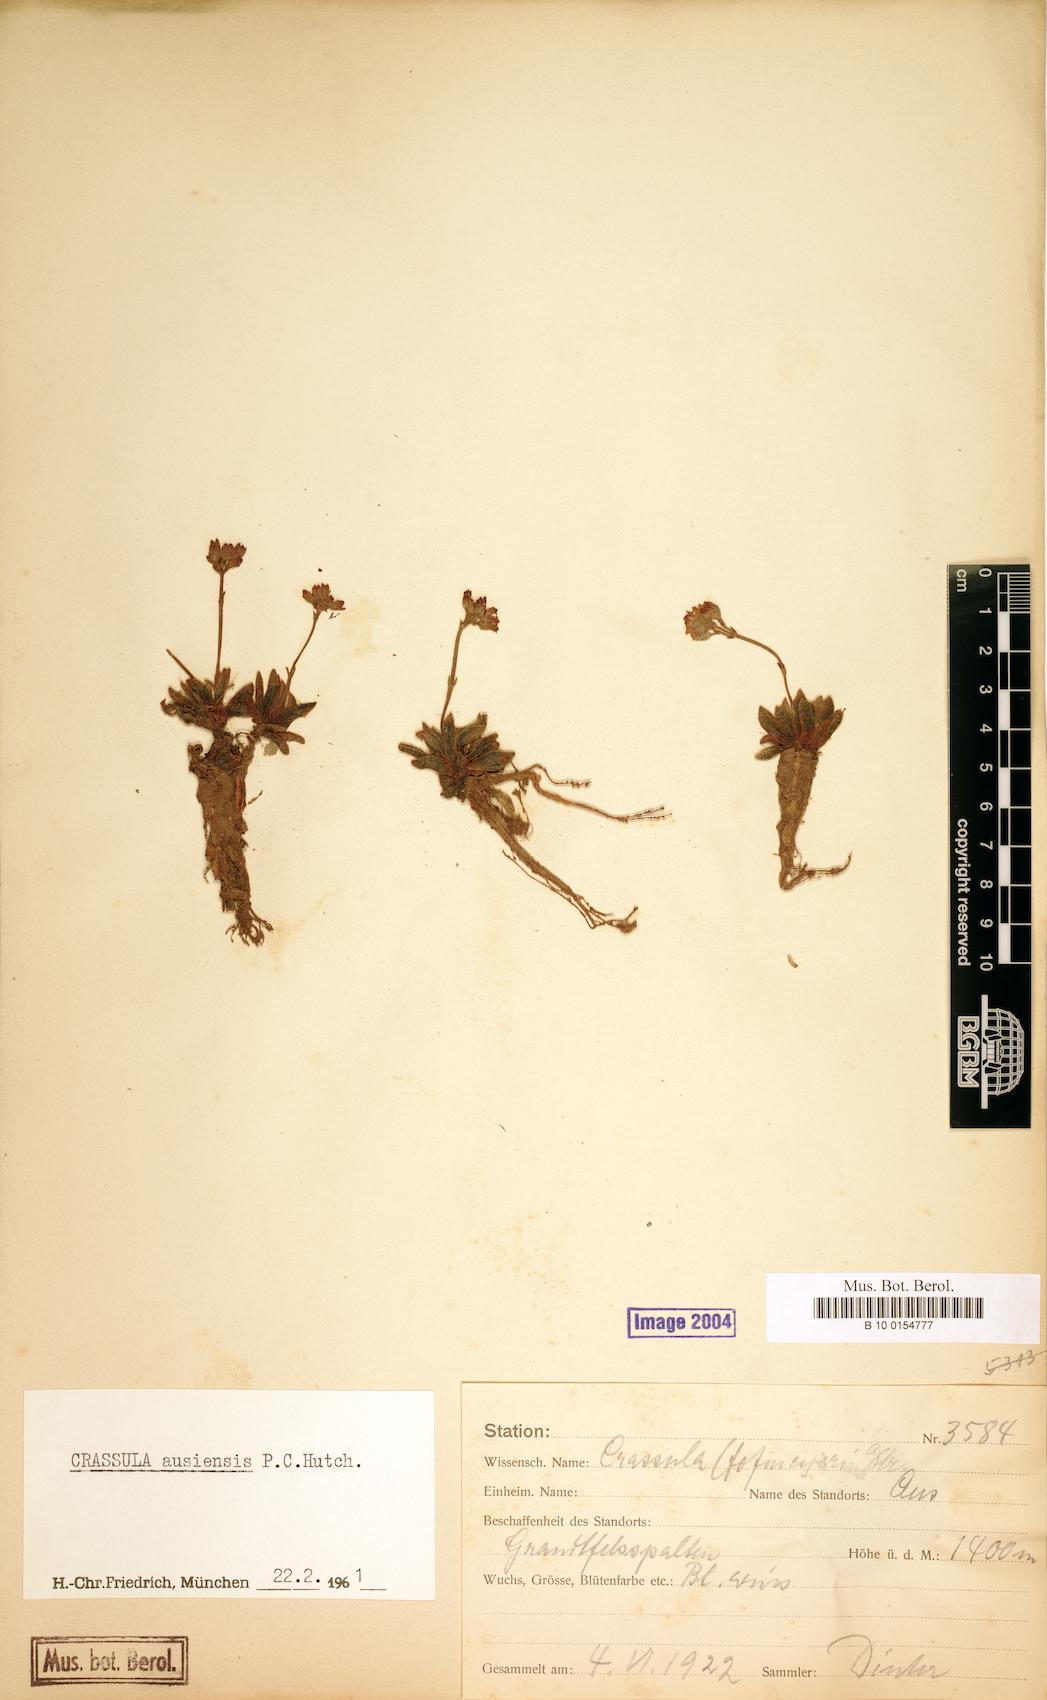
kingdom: Plantae
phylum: Tracheophyta
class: Magnoliopsida
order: Saxifragales
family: Crassulaceae
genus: Crassula
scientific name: Crassula ausensis
